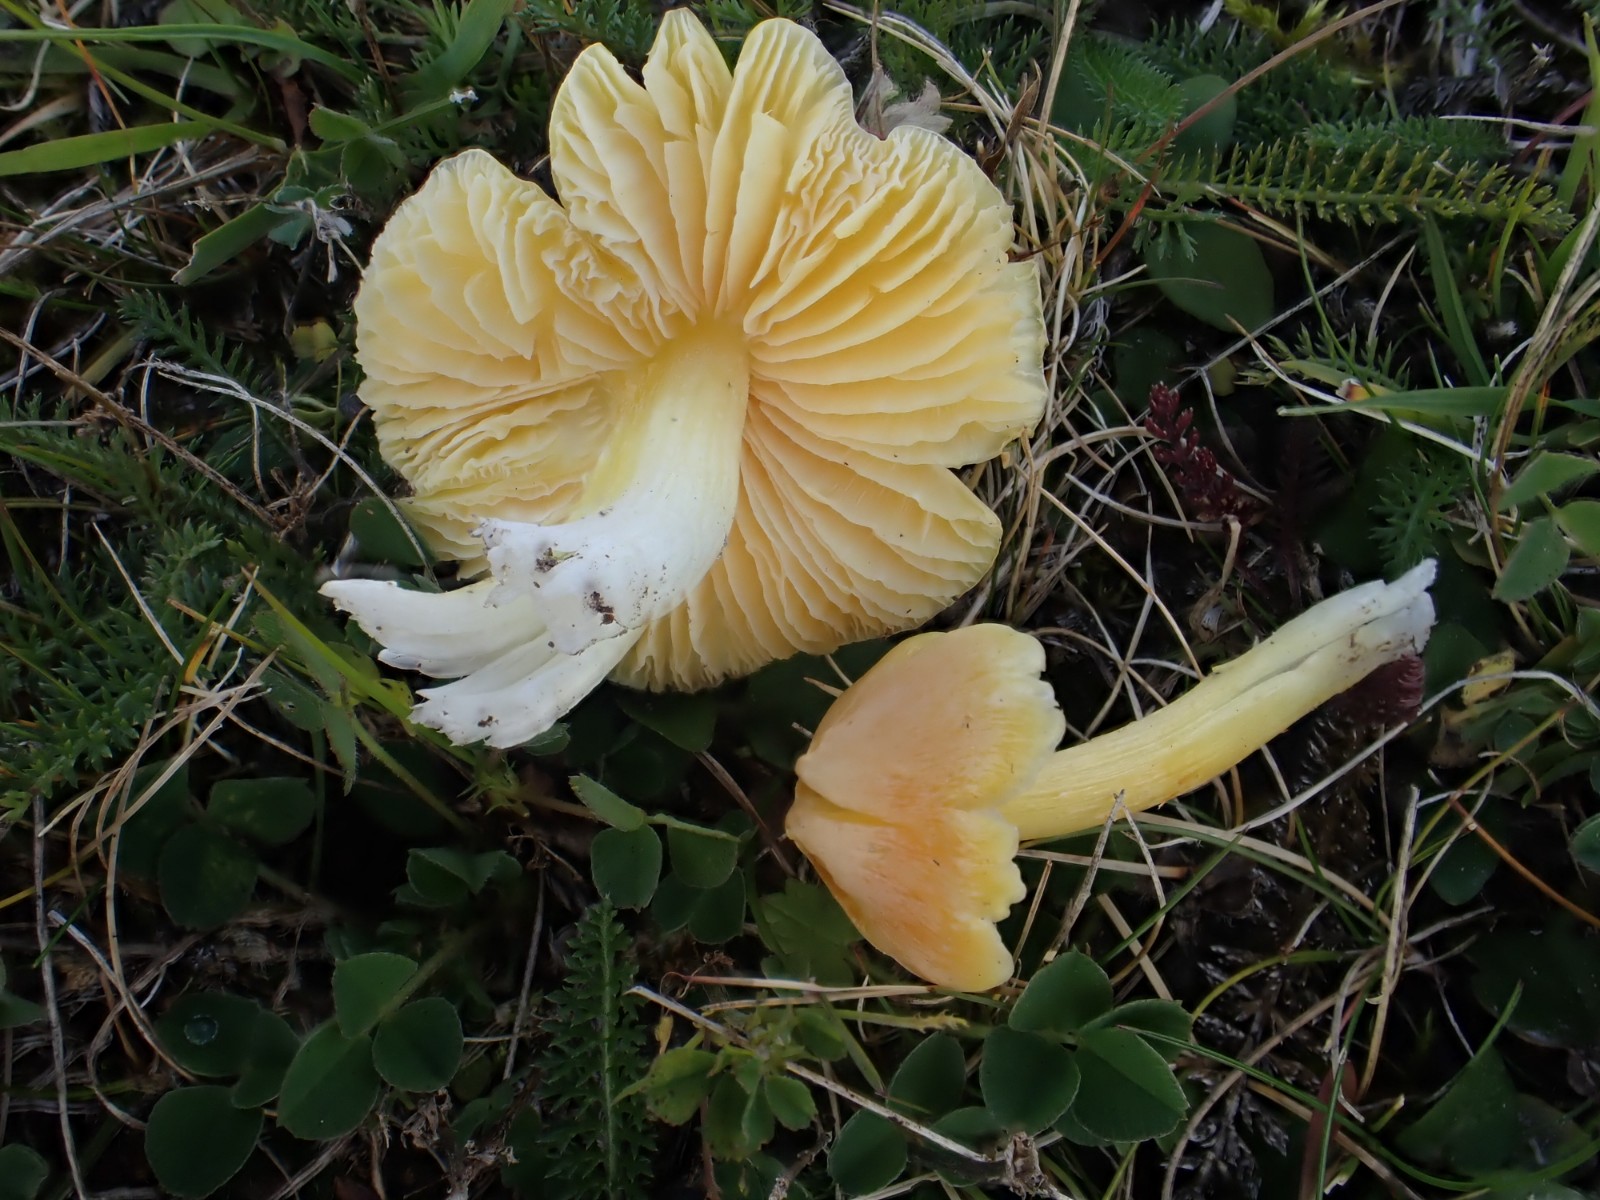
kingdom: Fungi
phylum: Basidiomycota
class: Agaricomycetes
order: Agaricales
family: Hygrophoraceae
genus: Hygrocybe
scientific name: Hygrocybe acutoconica
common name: Konrads vokshat
